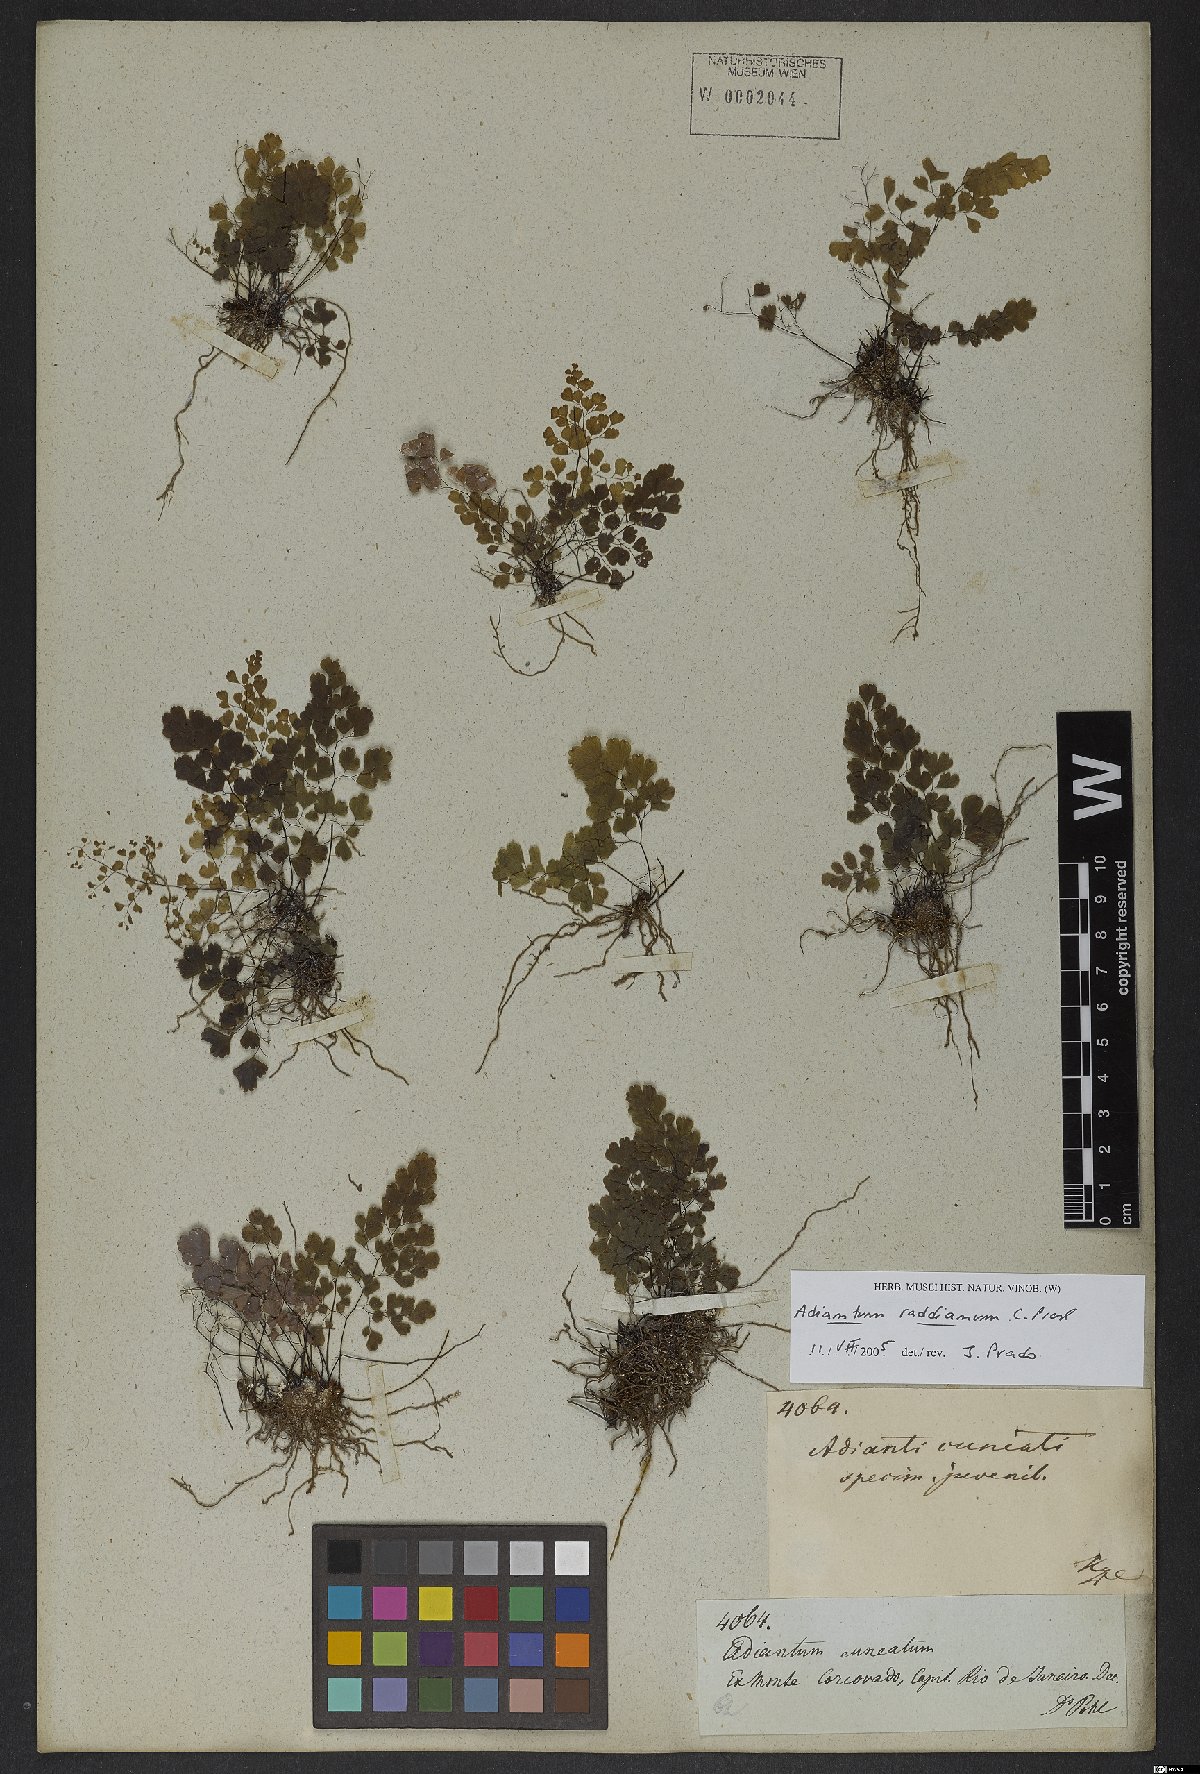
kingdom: Plantae
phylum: Tracheophyta
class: Polypodiopsida
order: Polypodiales
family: Pteridaceae
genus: Adiantum
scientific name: Adiantum raddianum
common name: Delta maidenhair fern
